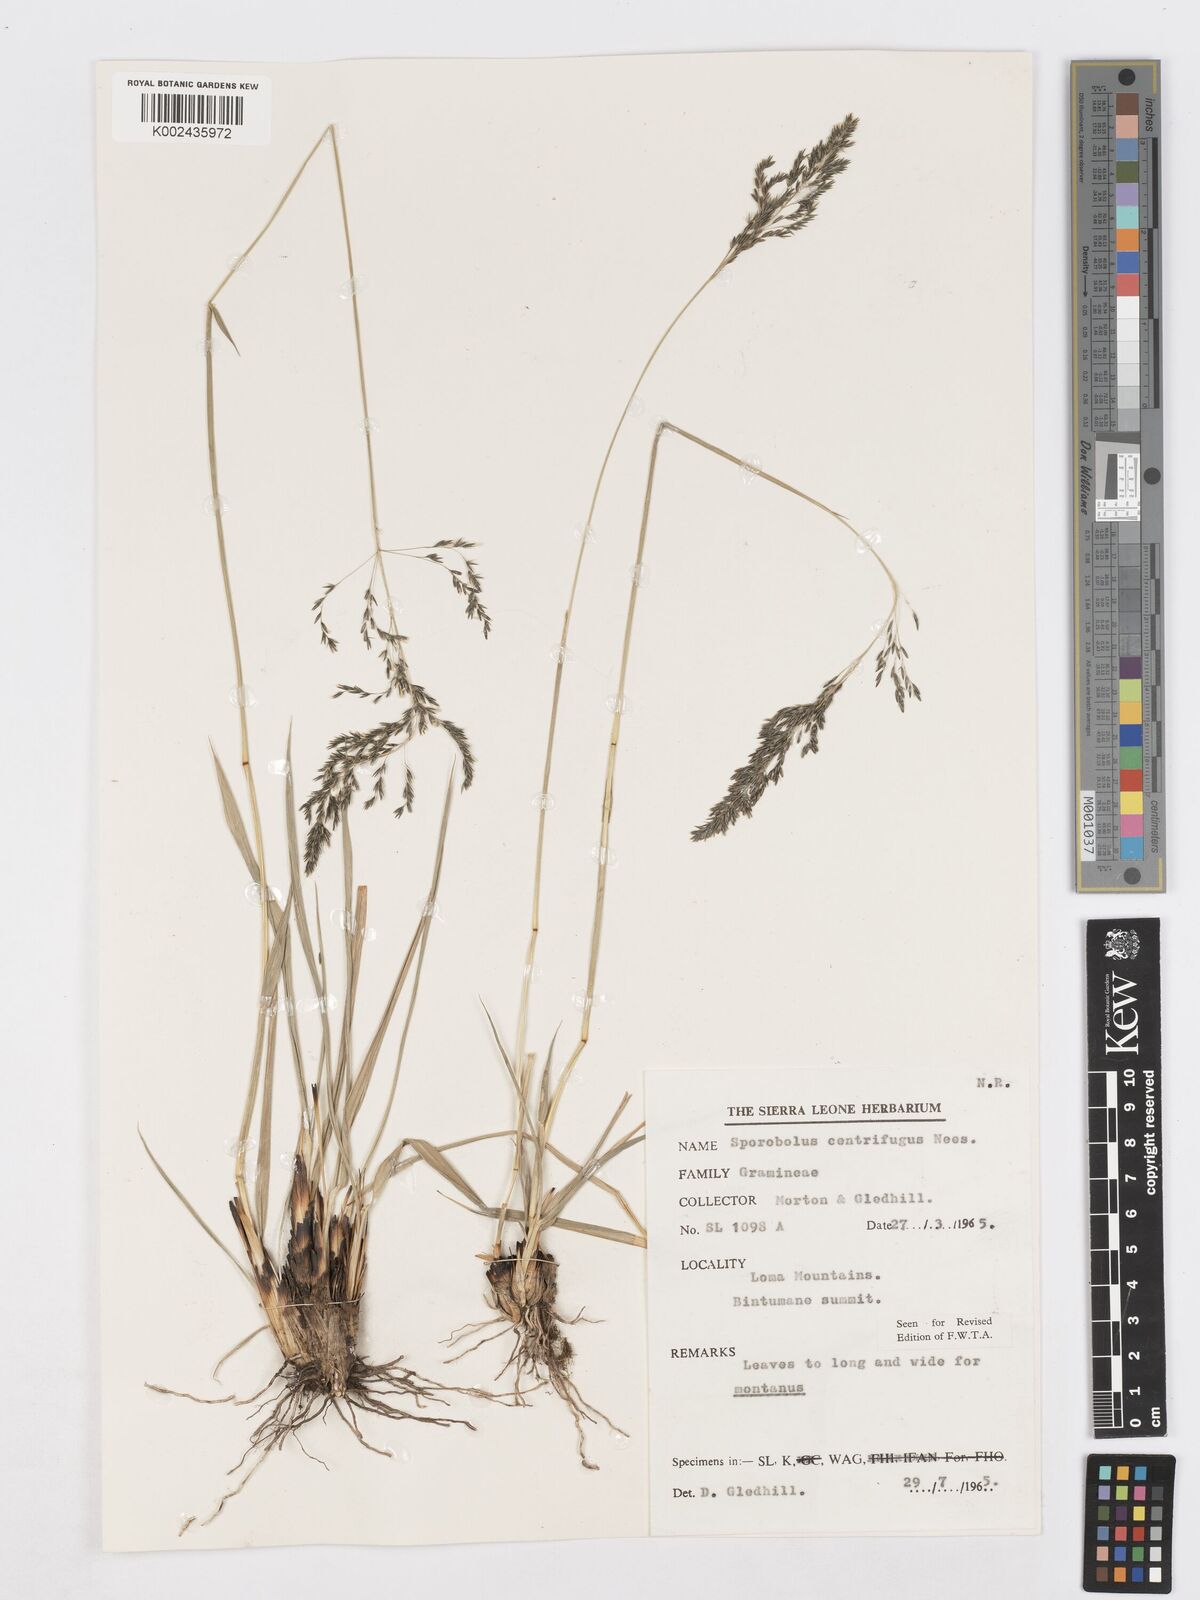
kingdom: Plantae
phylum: Tracheophyta
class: Liliopsida
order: Poales
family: Poaceae
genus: Sporobolus
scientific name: Sporobolus subulatus
